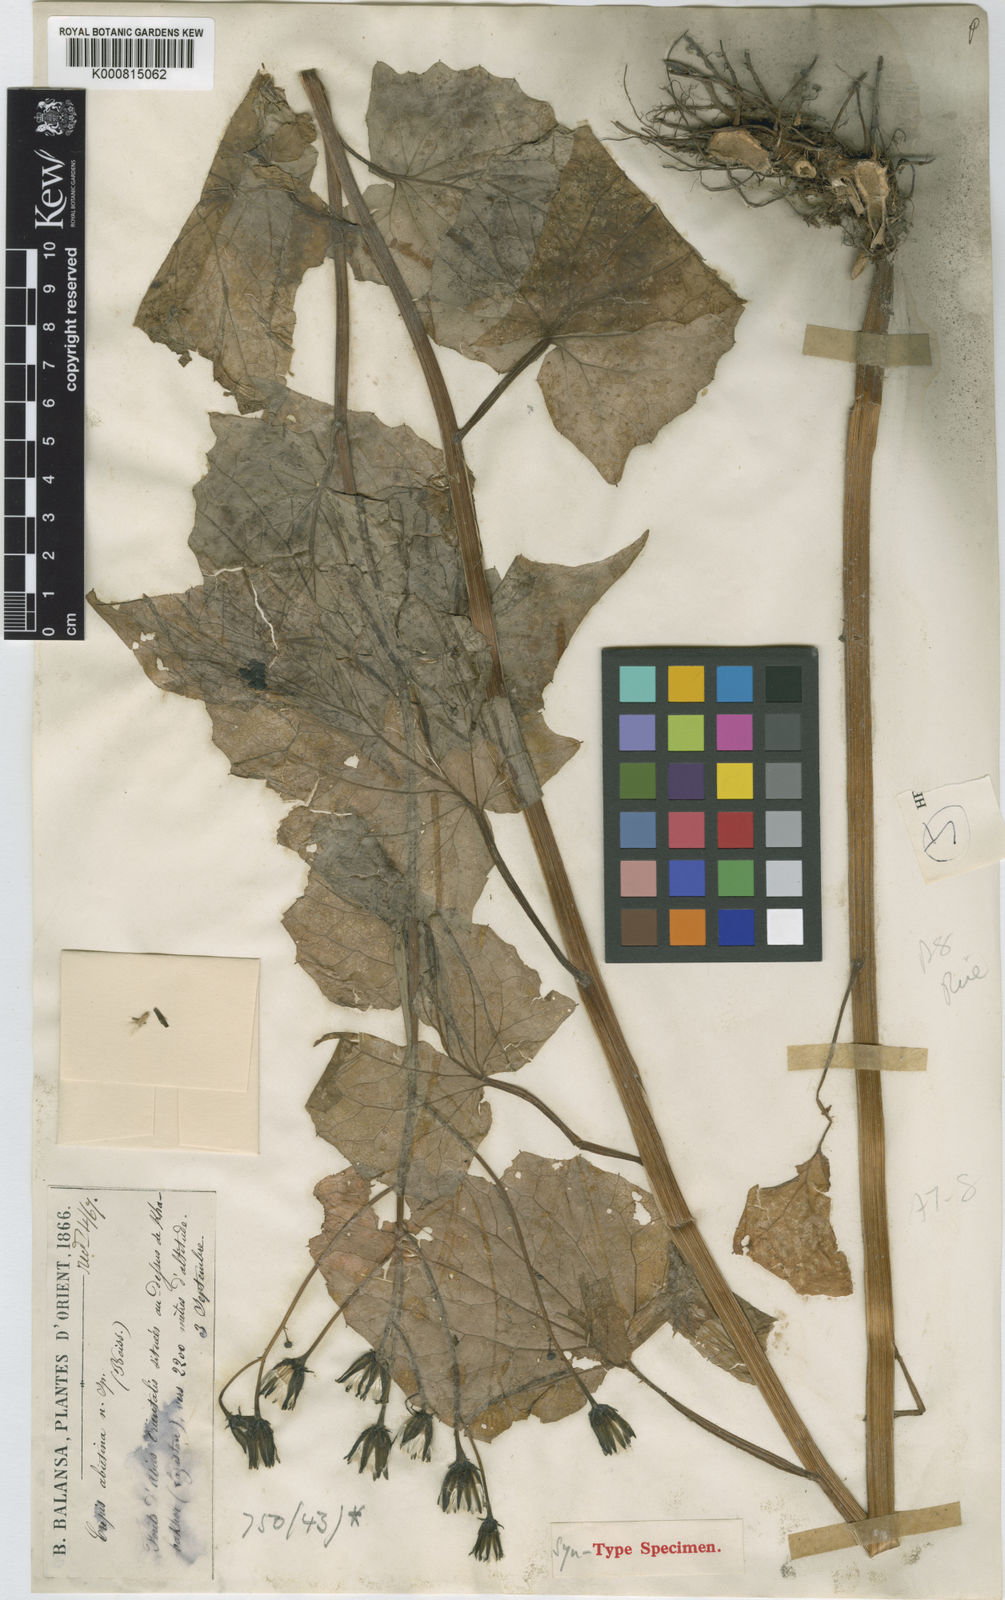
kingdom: Plantae
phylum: Tracheophyta
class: Magnoliopsida
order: Asterales
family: Asteraceae
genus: Caucasoseris
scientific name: Caucasoseris abietina
